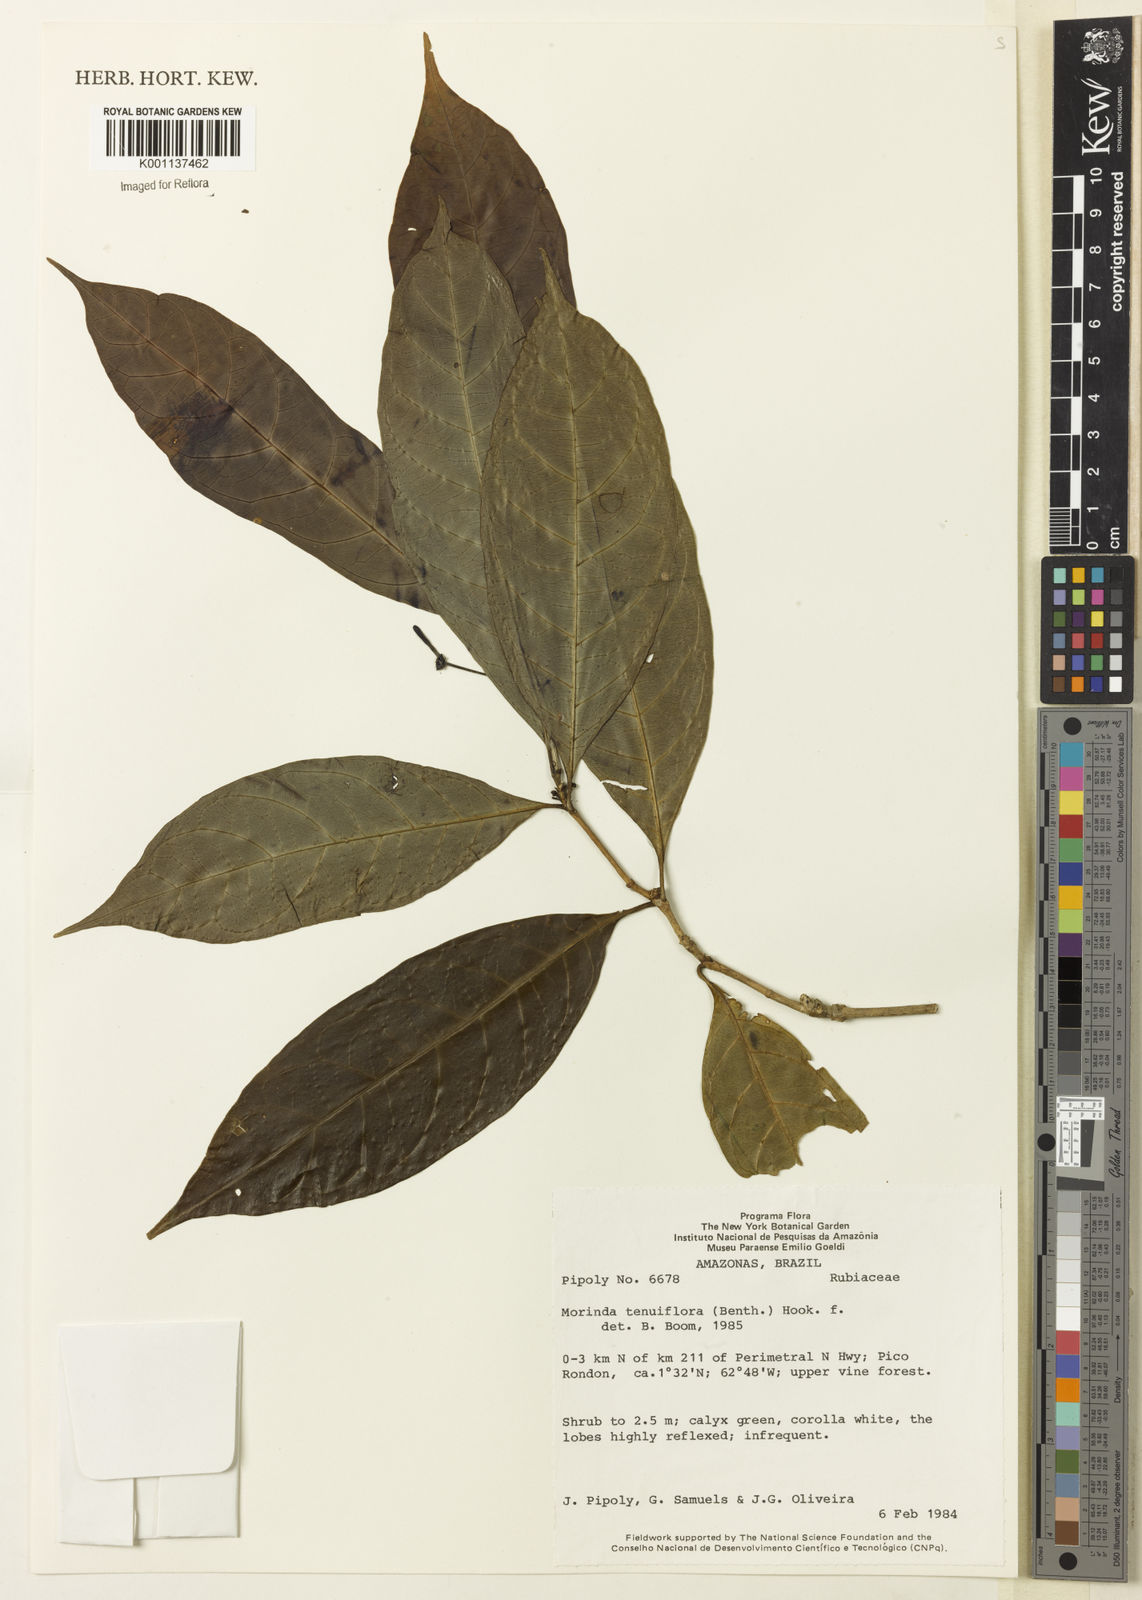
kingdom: Plantae
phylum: Tracheophyta
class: Magnoliopsida
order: Gentianales
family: Rubiaceae
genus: Appunia
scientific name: Appunia tenuiflora
